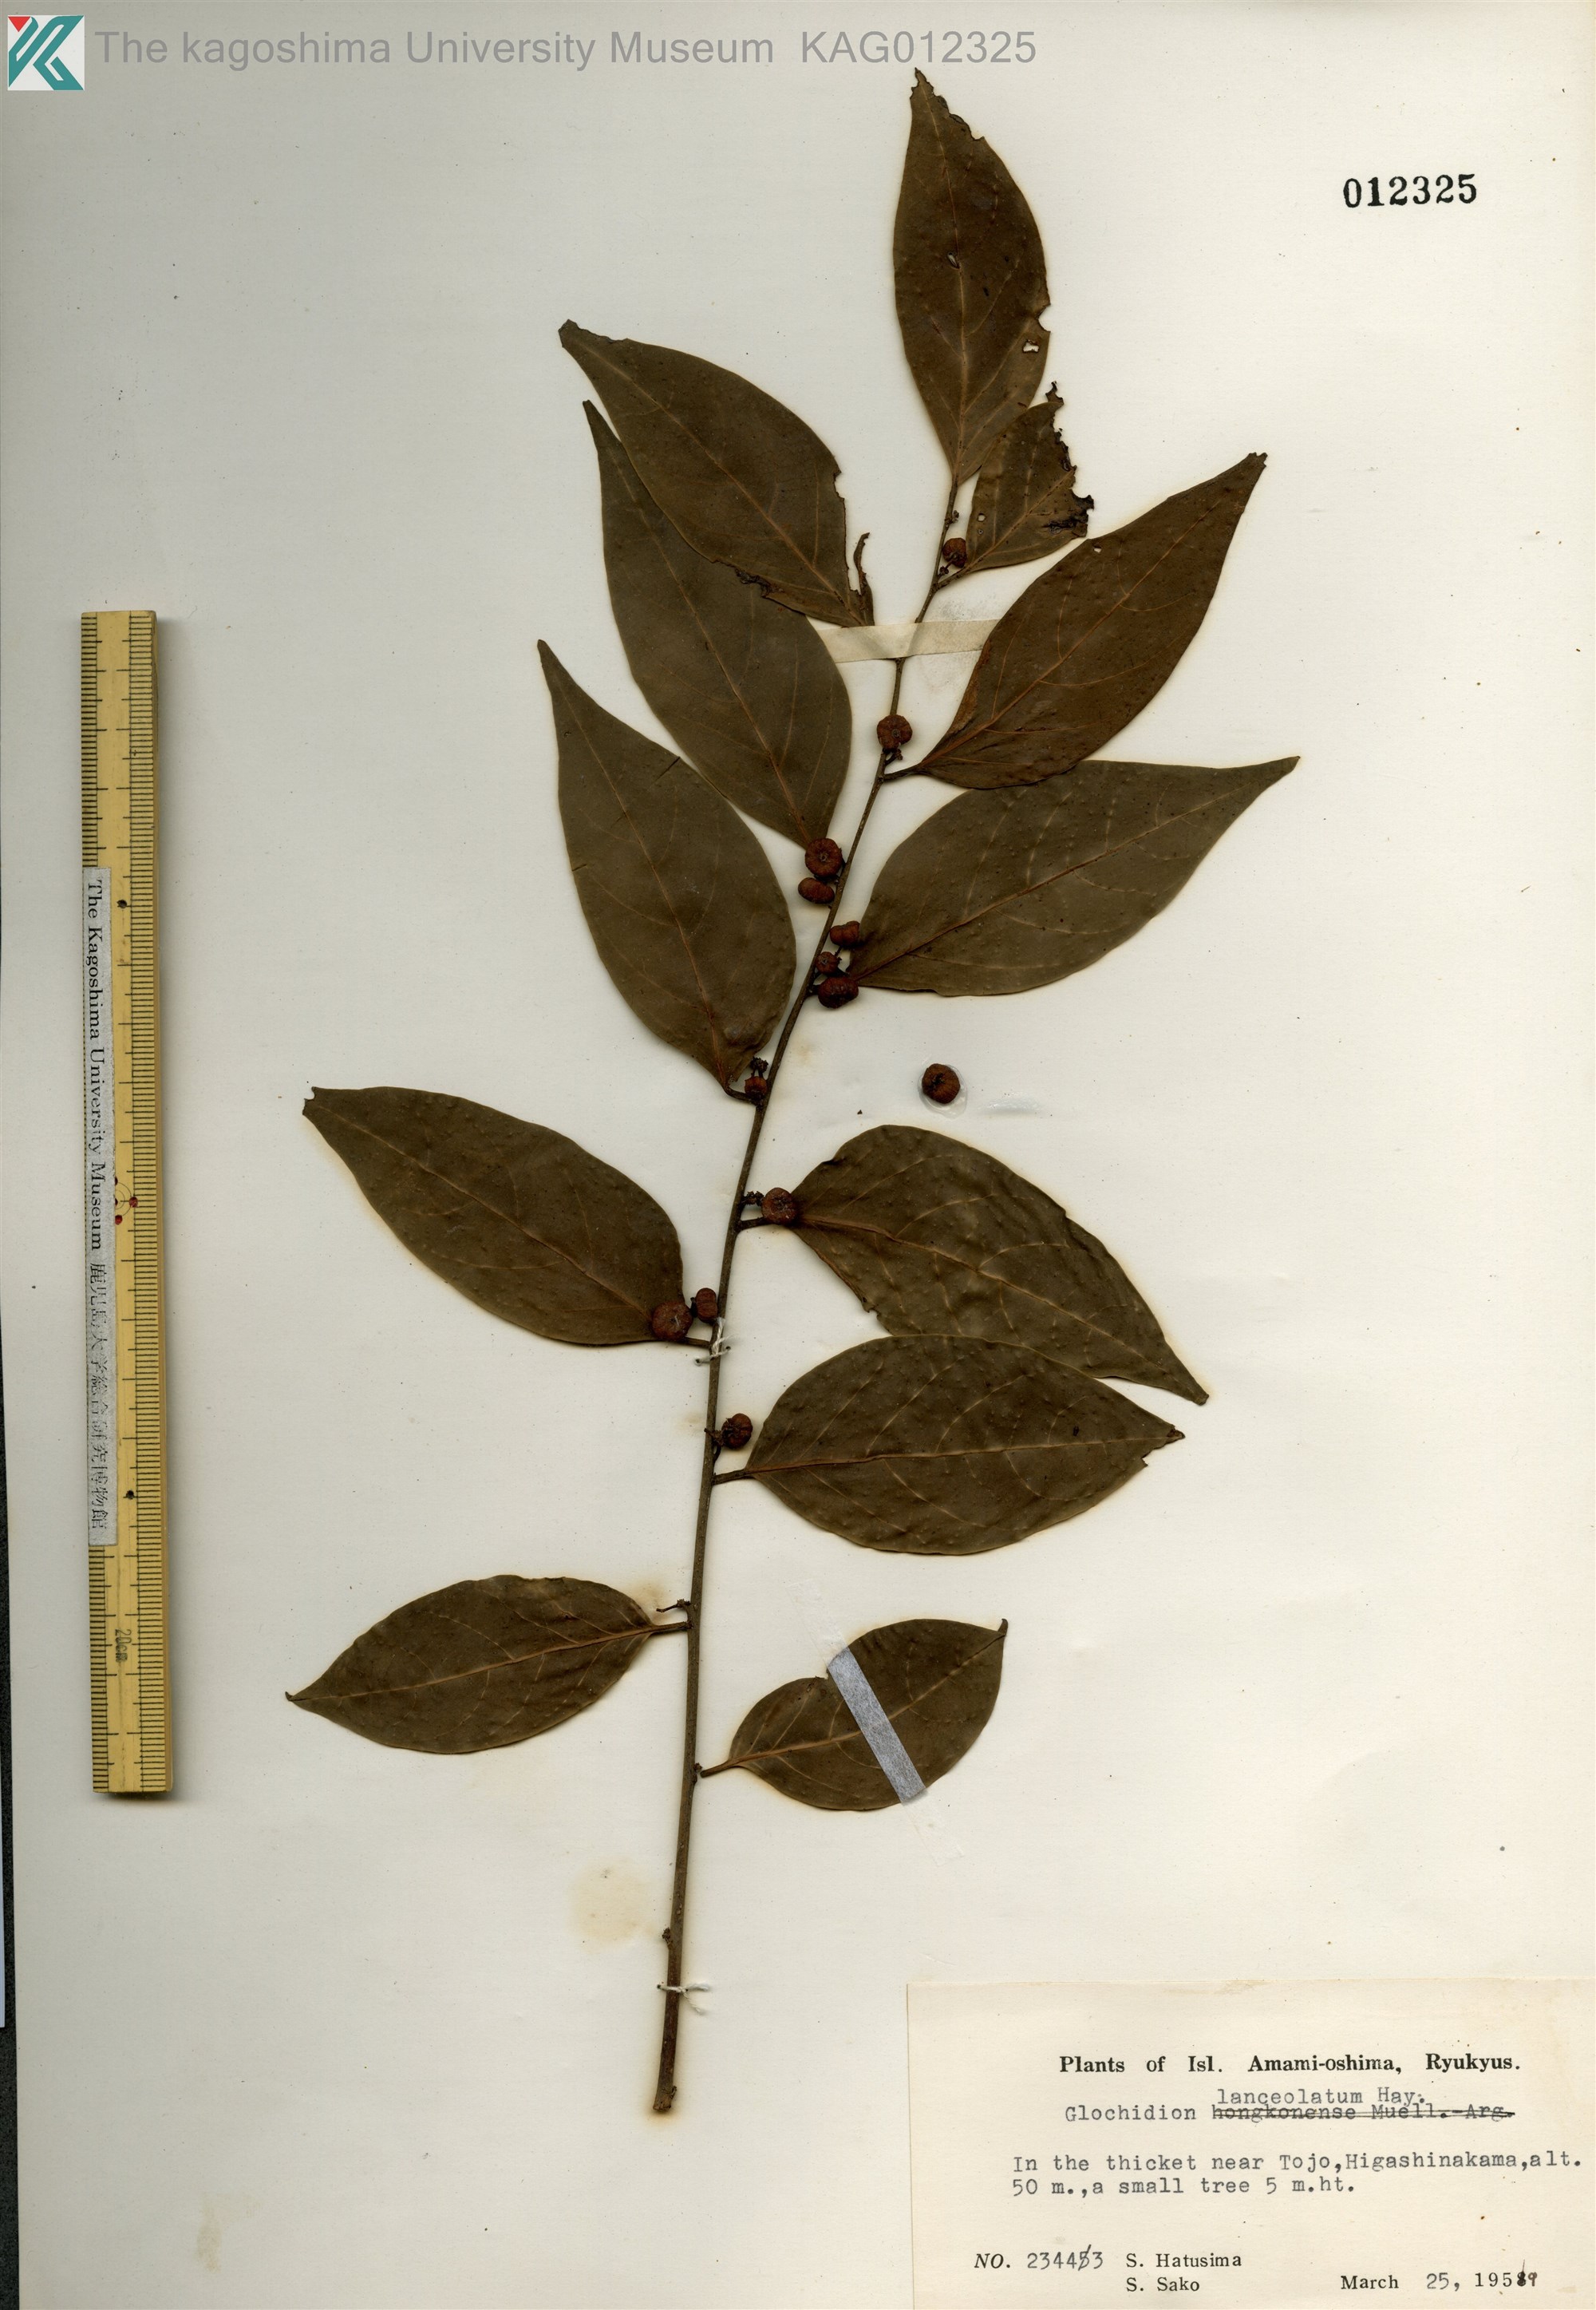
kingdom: Plantae
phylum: Tracheophyta
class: Magnoliopsida
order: Malpighiales
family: Phyllanthaceae
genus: Glochidion
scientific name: Glochidion lanceolatum
